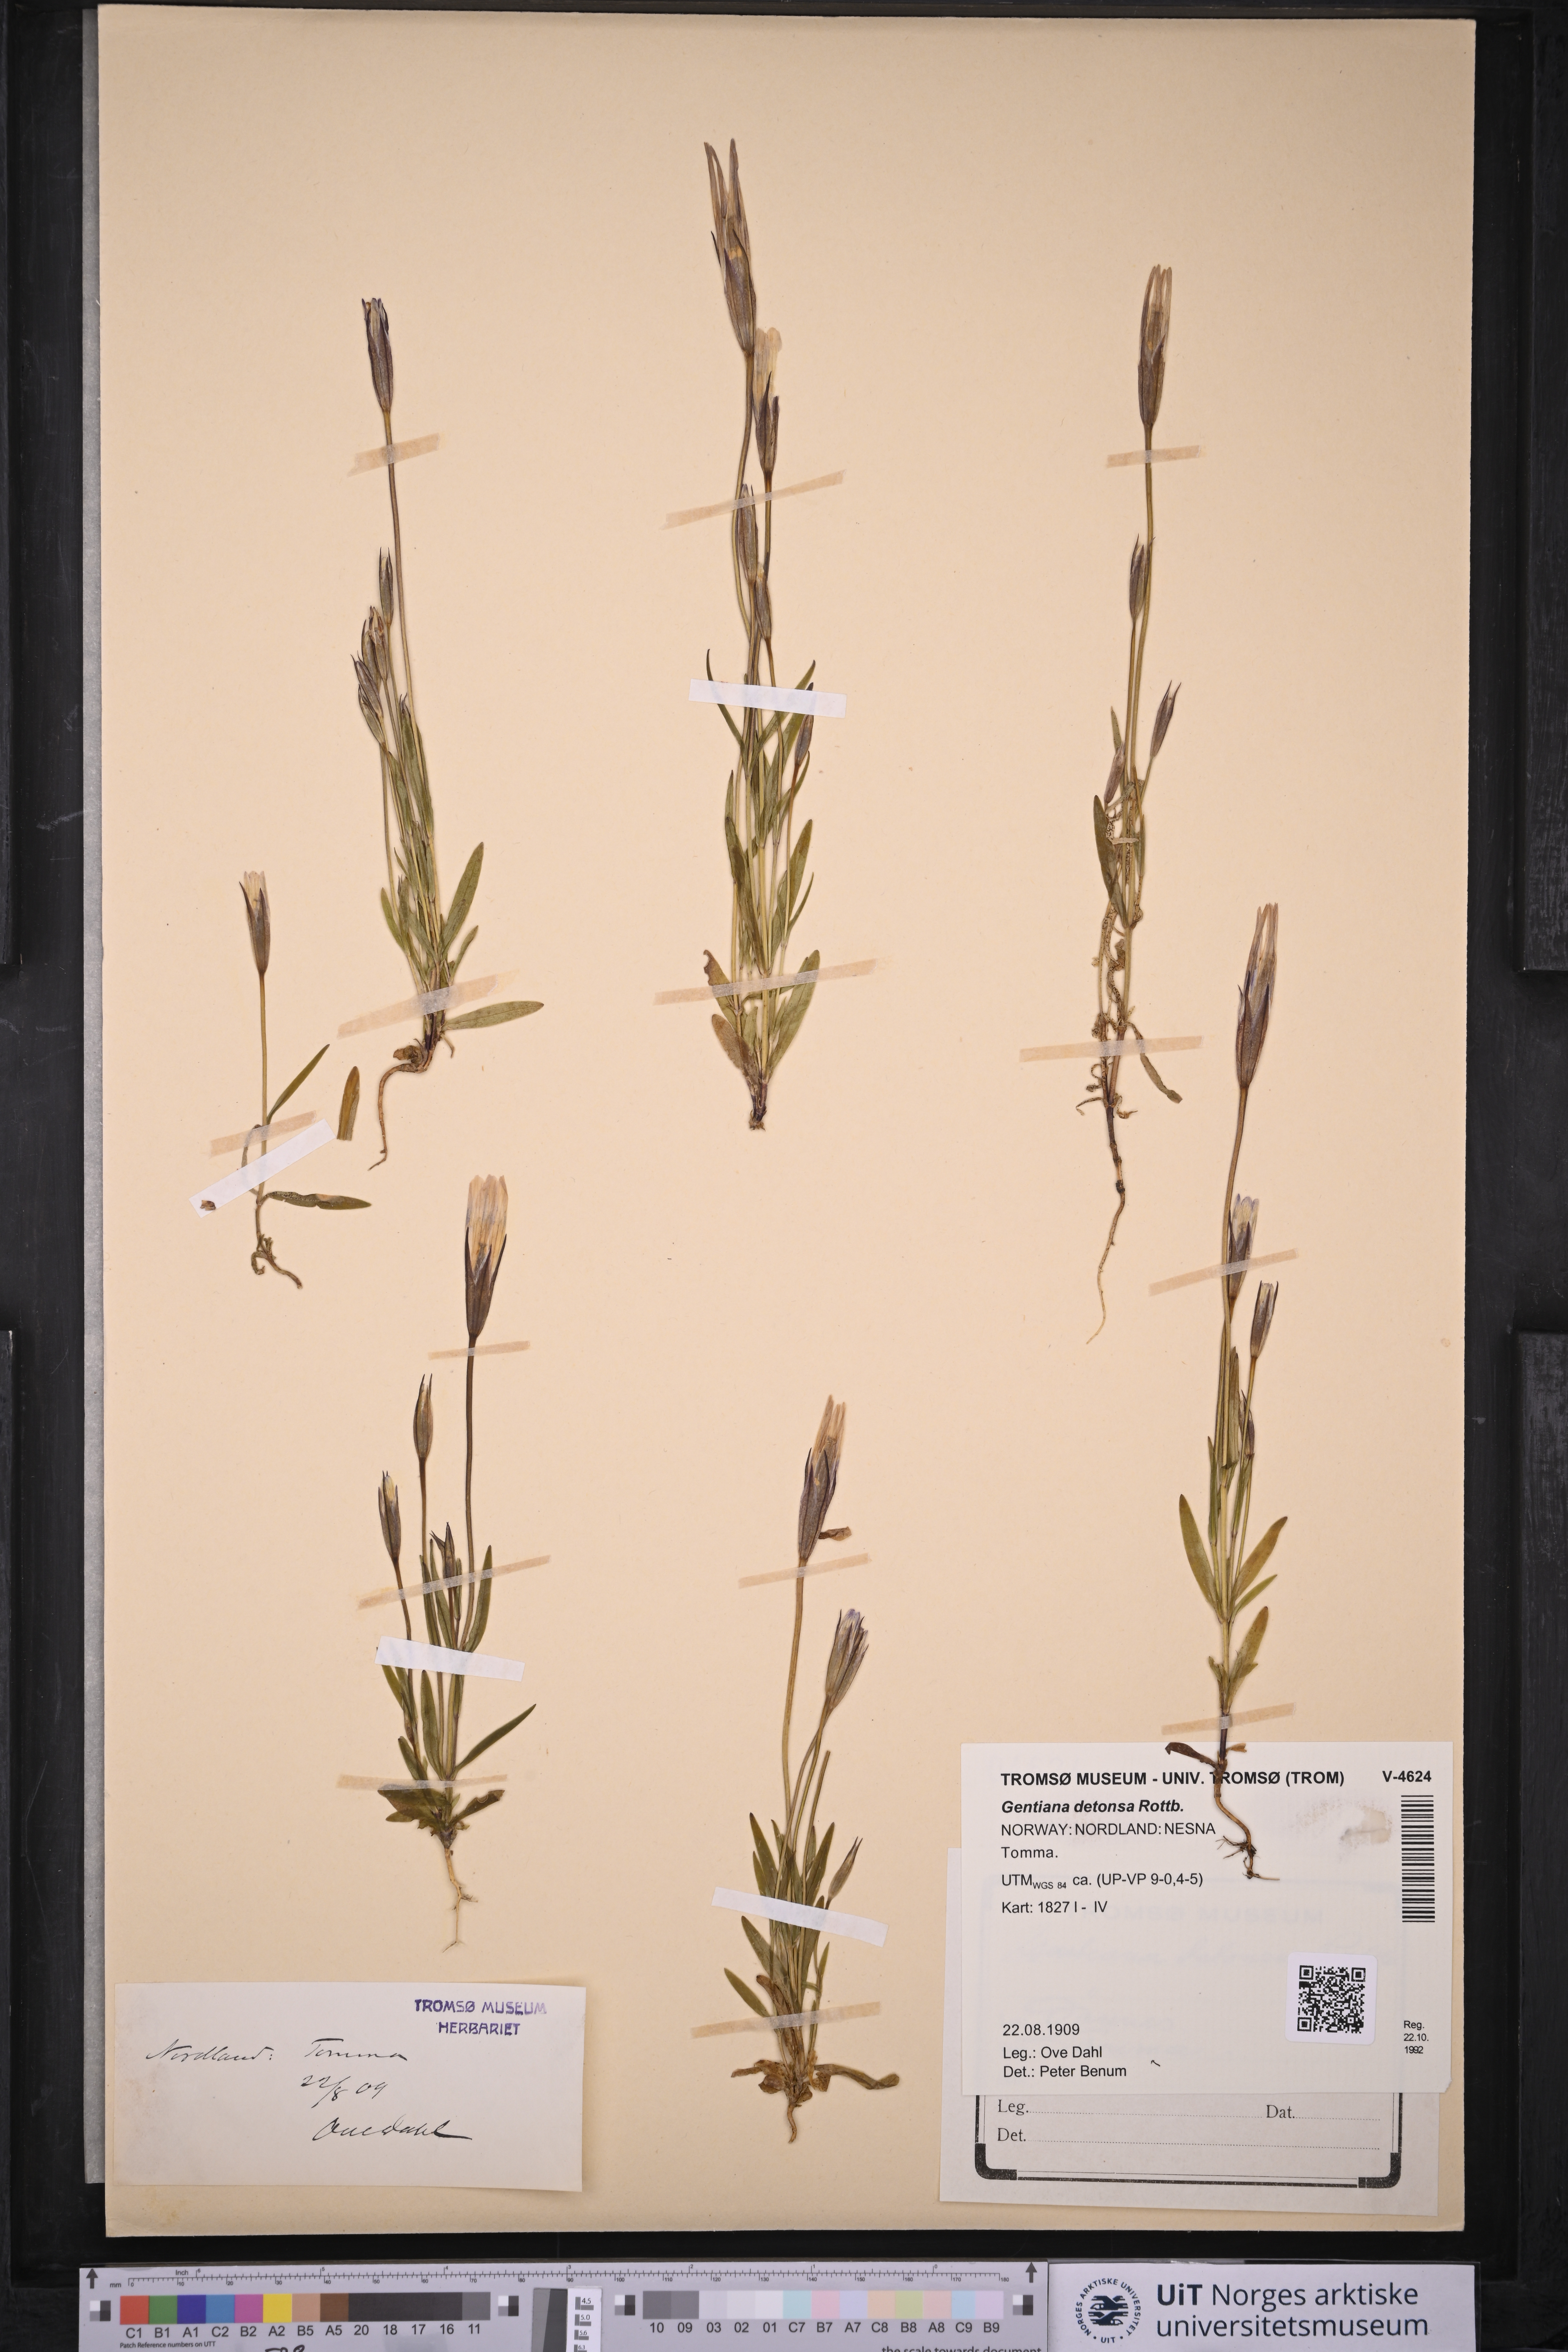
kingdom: Plantae
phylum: Tracheophyta
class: Magnoliopsida
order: Gentianales
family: Gentianaceae
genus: Gentianopsis
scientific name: Gentianopsis detonsa
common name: Fringed-gentian
